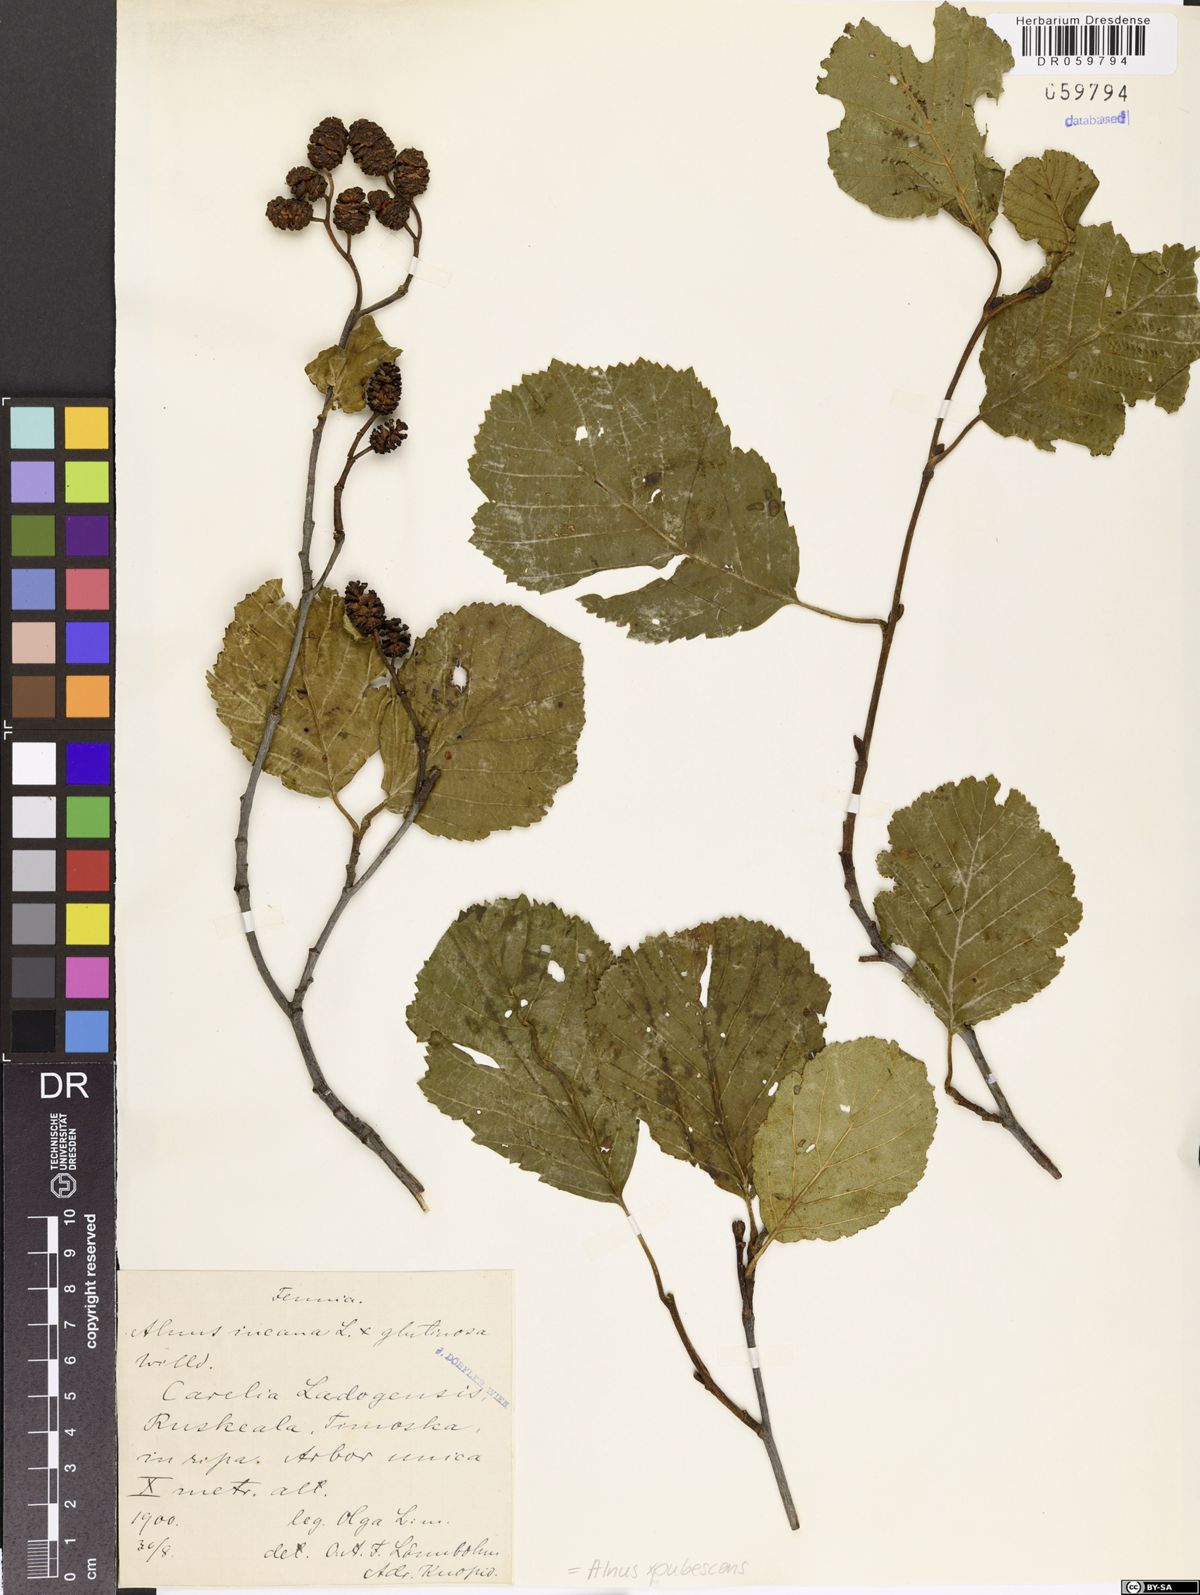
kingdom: Plantae
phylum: Tracheophyta
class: Magnoliopsida
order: Fagales
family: Betulaceae
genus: Alnus
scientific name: Alnus pubescens
